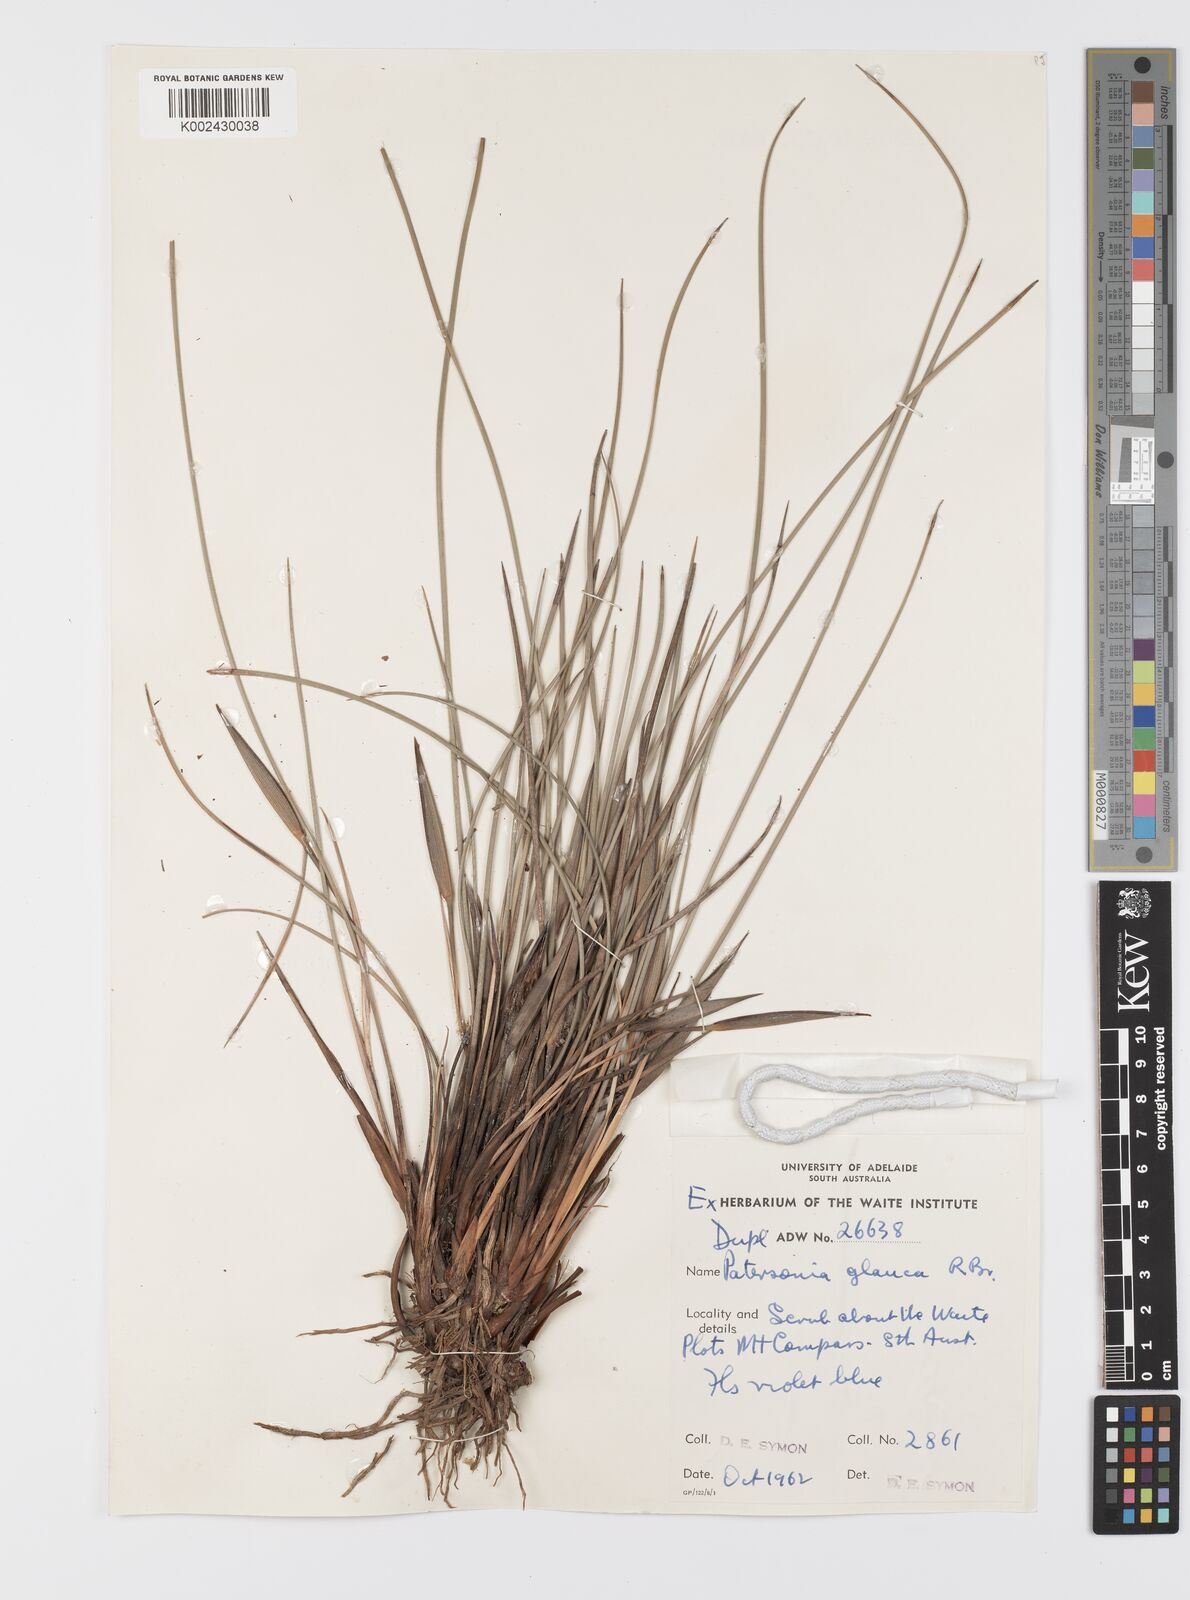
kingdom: Plantae
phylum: Tracheophyta
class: Liliopsida
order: Asparagales
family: Iridaceae
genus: Patersonia
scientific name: Patersonia fragilis
